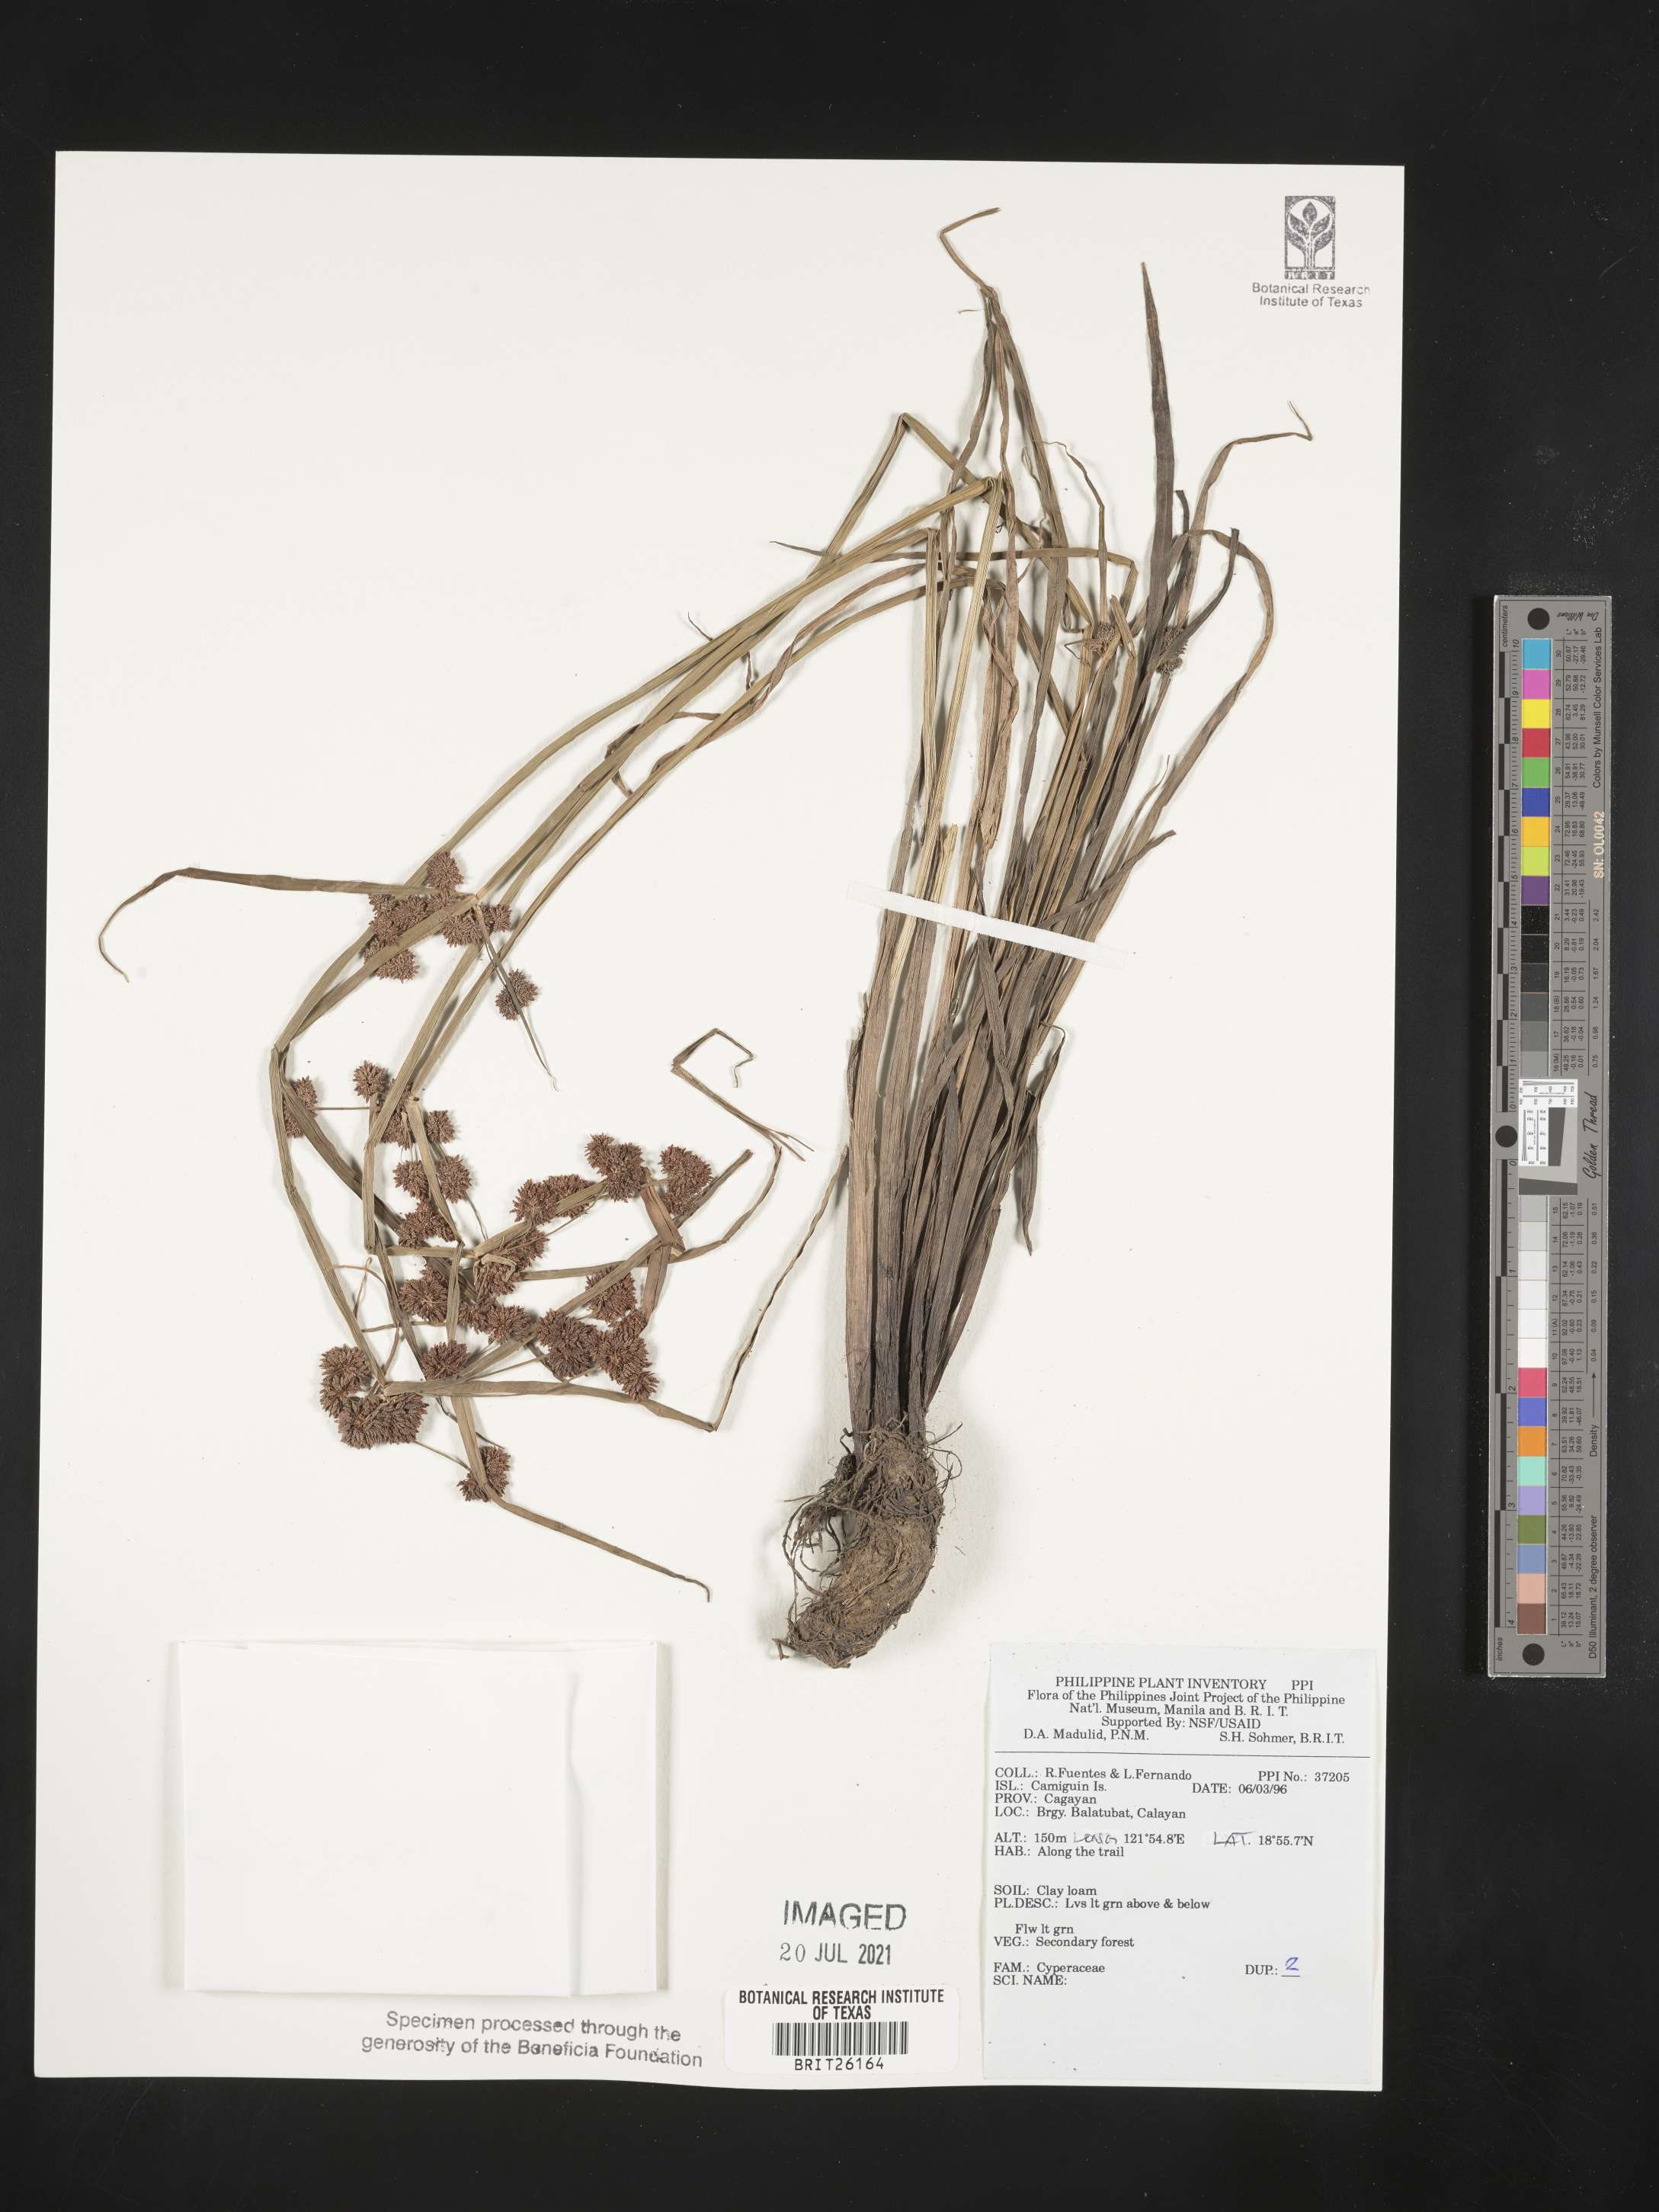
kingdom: Plantae
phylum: Tracheophyta
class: Liliopsida
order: Poales
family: Cyperaceae
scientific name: Cyperaceae
